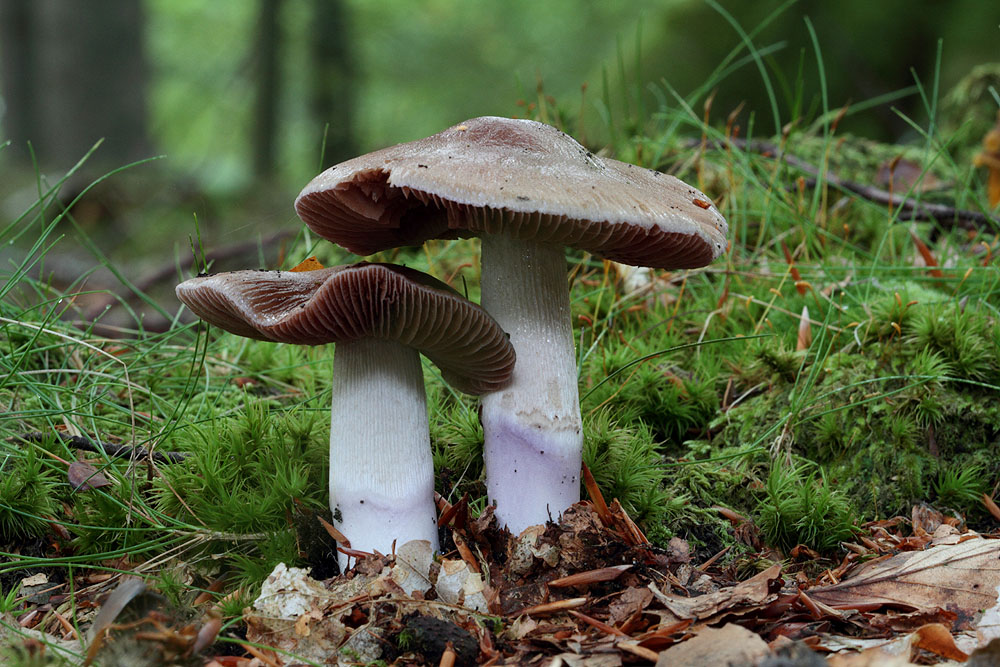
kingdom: Fungi
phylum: Basidiomycota
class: Agaricomycetes
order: Agaricales
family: Cortinariaceae
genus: Cortinarius
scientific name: Cortinarius elatior
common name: høj slørhat
